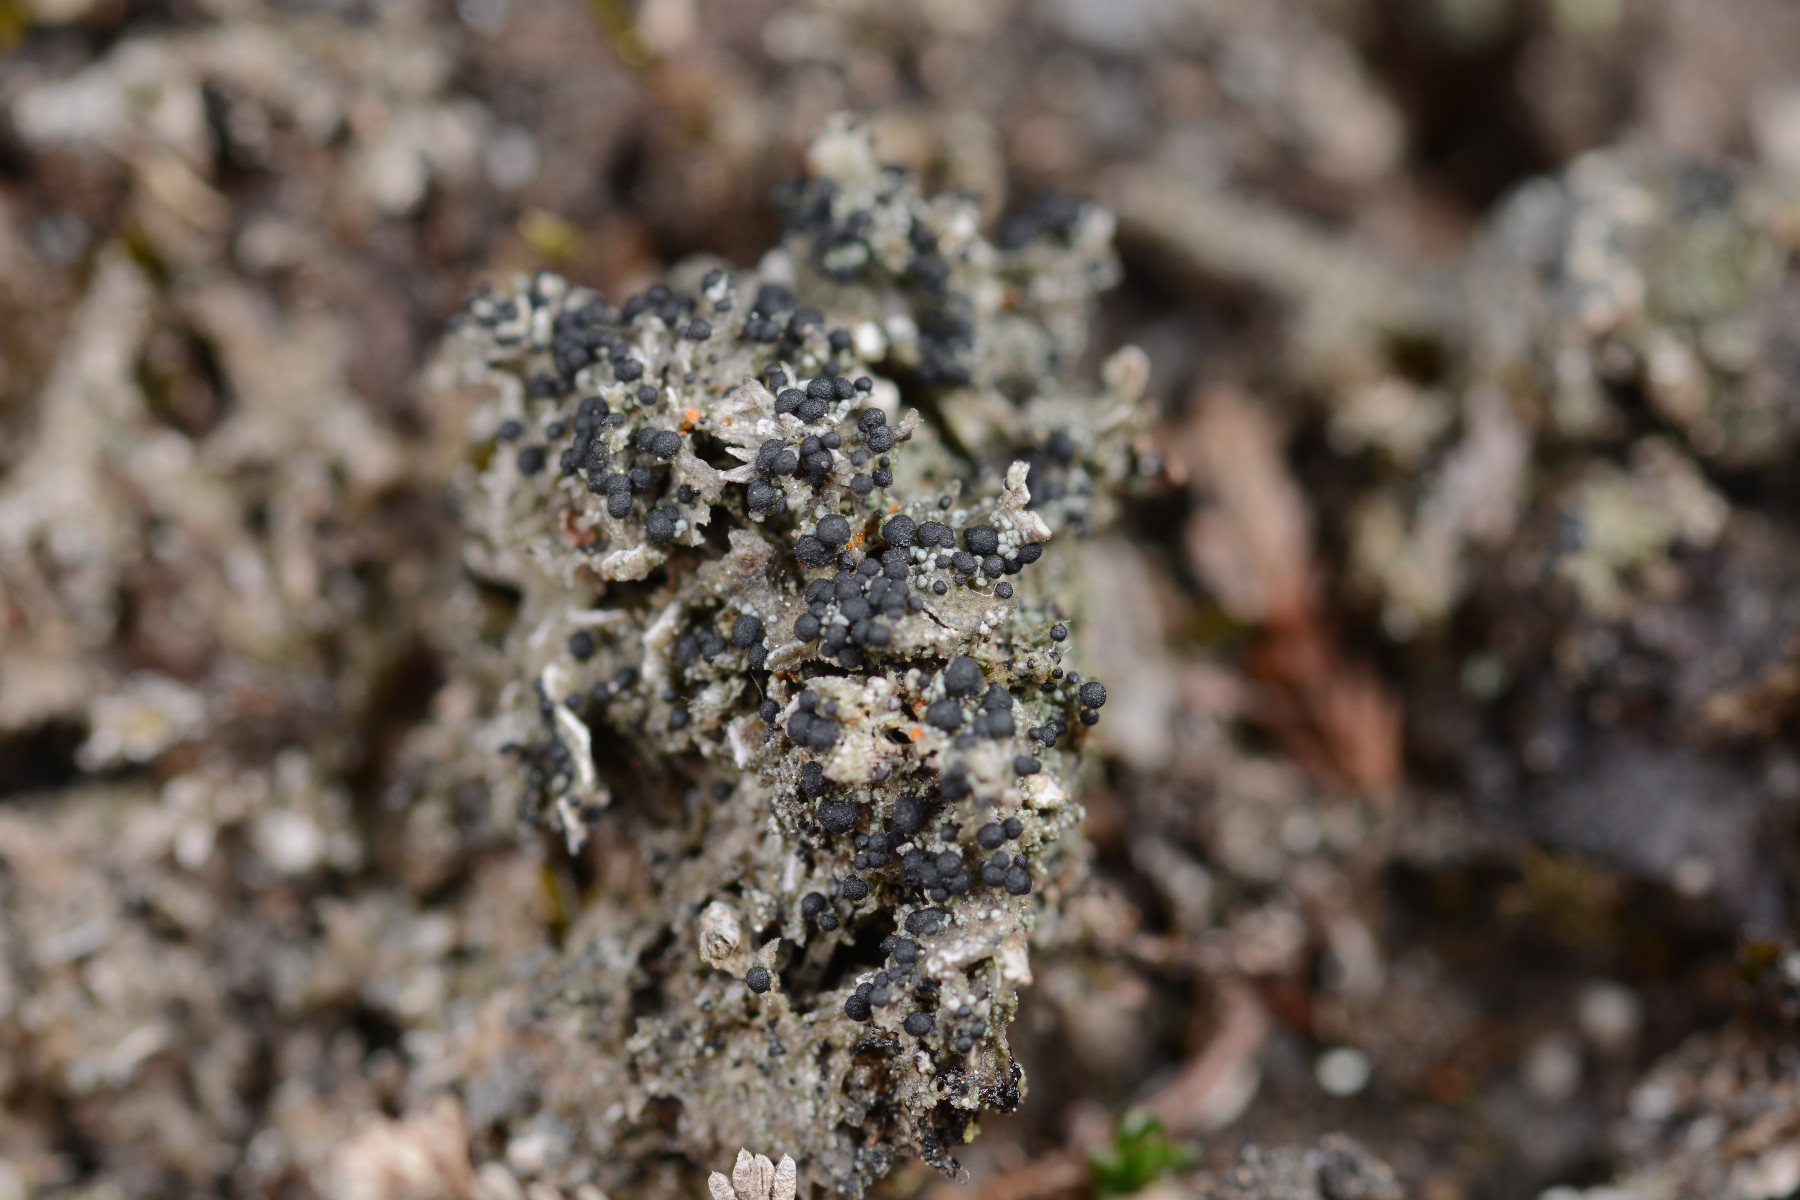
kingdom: Fungi
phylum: Ascomycota
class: Lecanoromycetes
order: Lecanorales
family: Byssolomataceae
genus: Micarea
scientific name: Micarea lignaria
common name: tørve-knaplav
